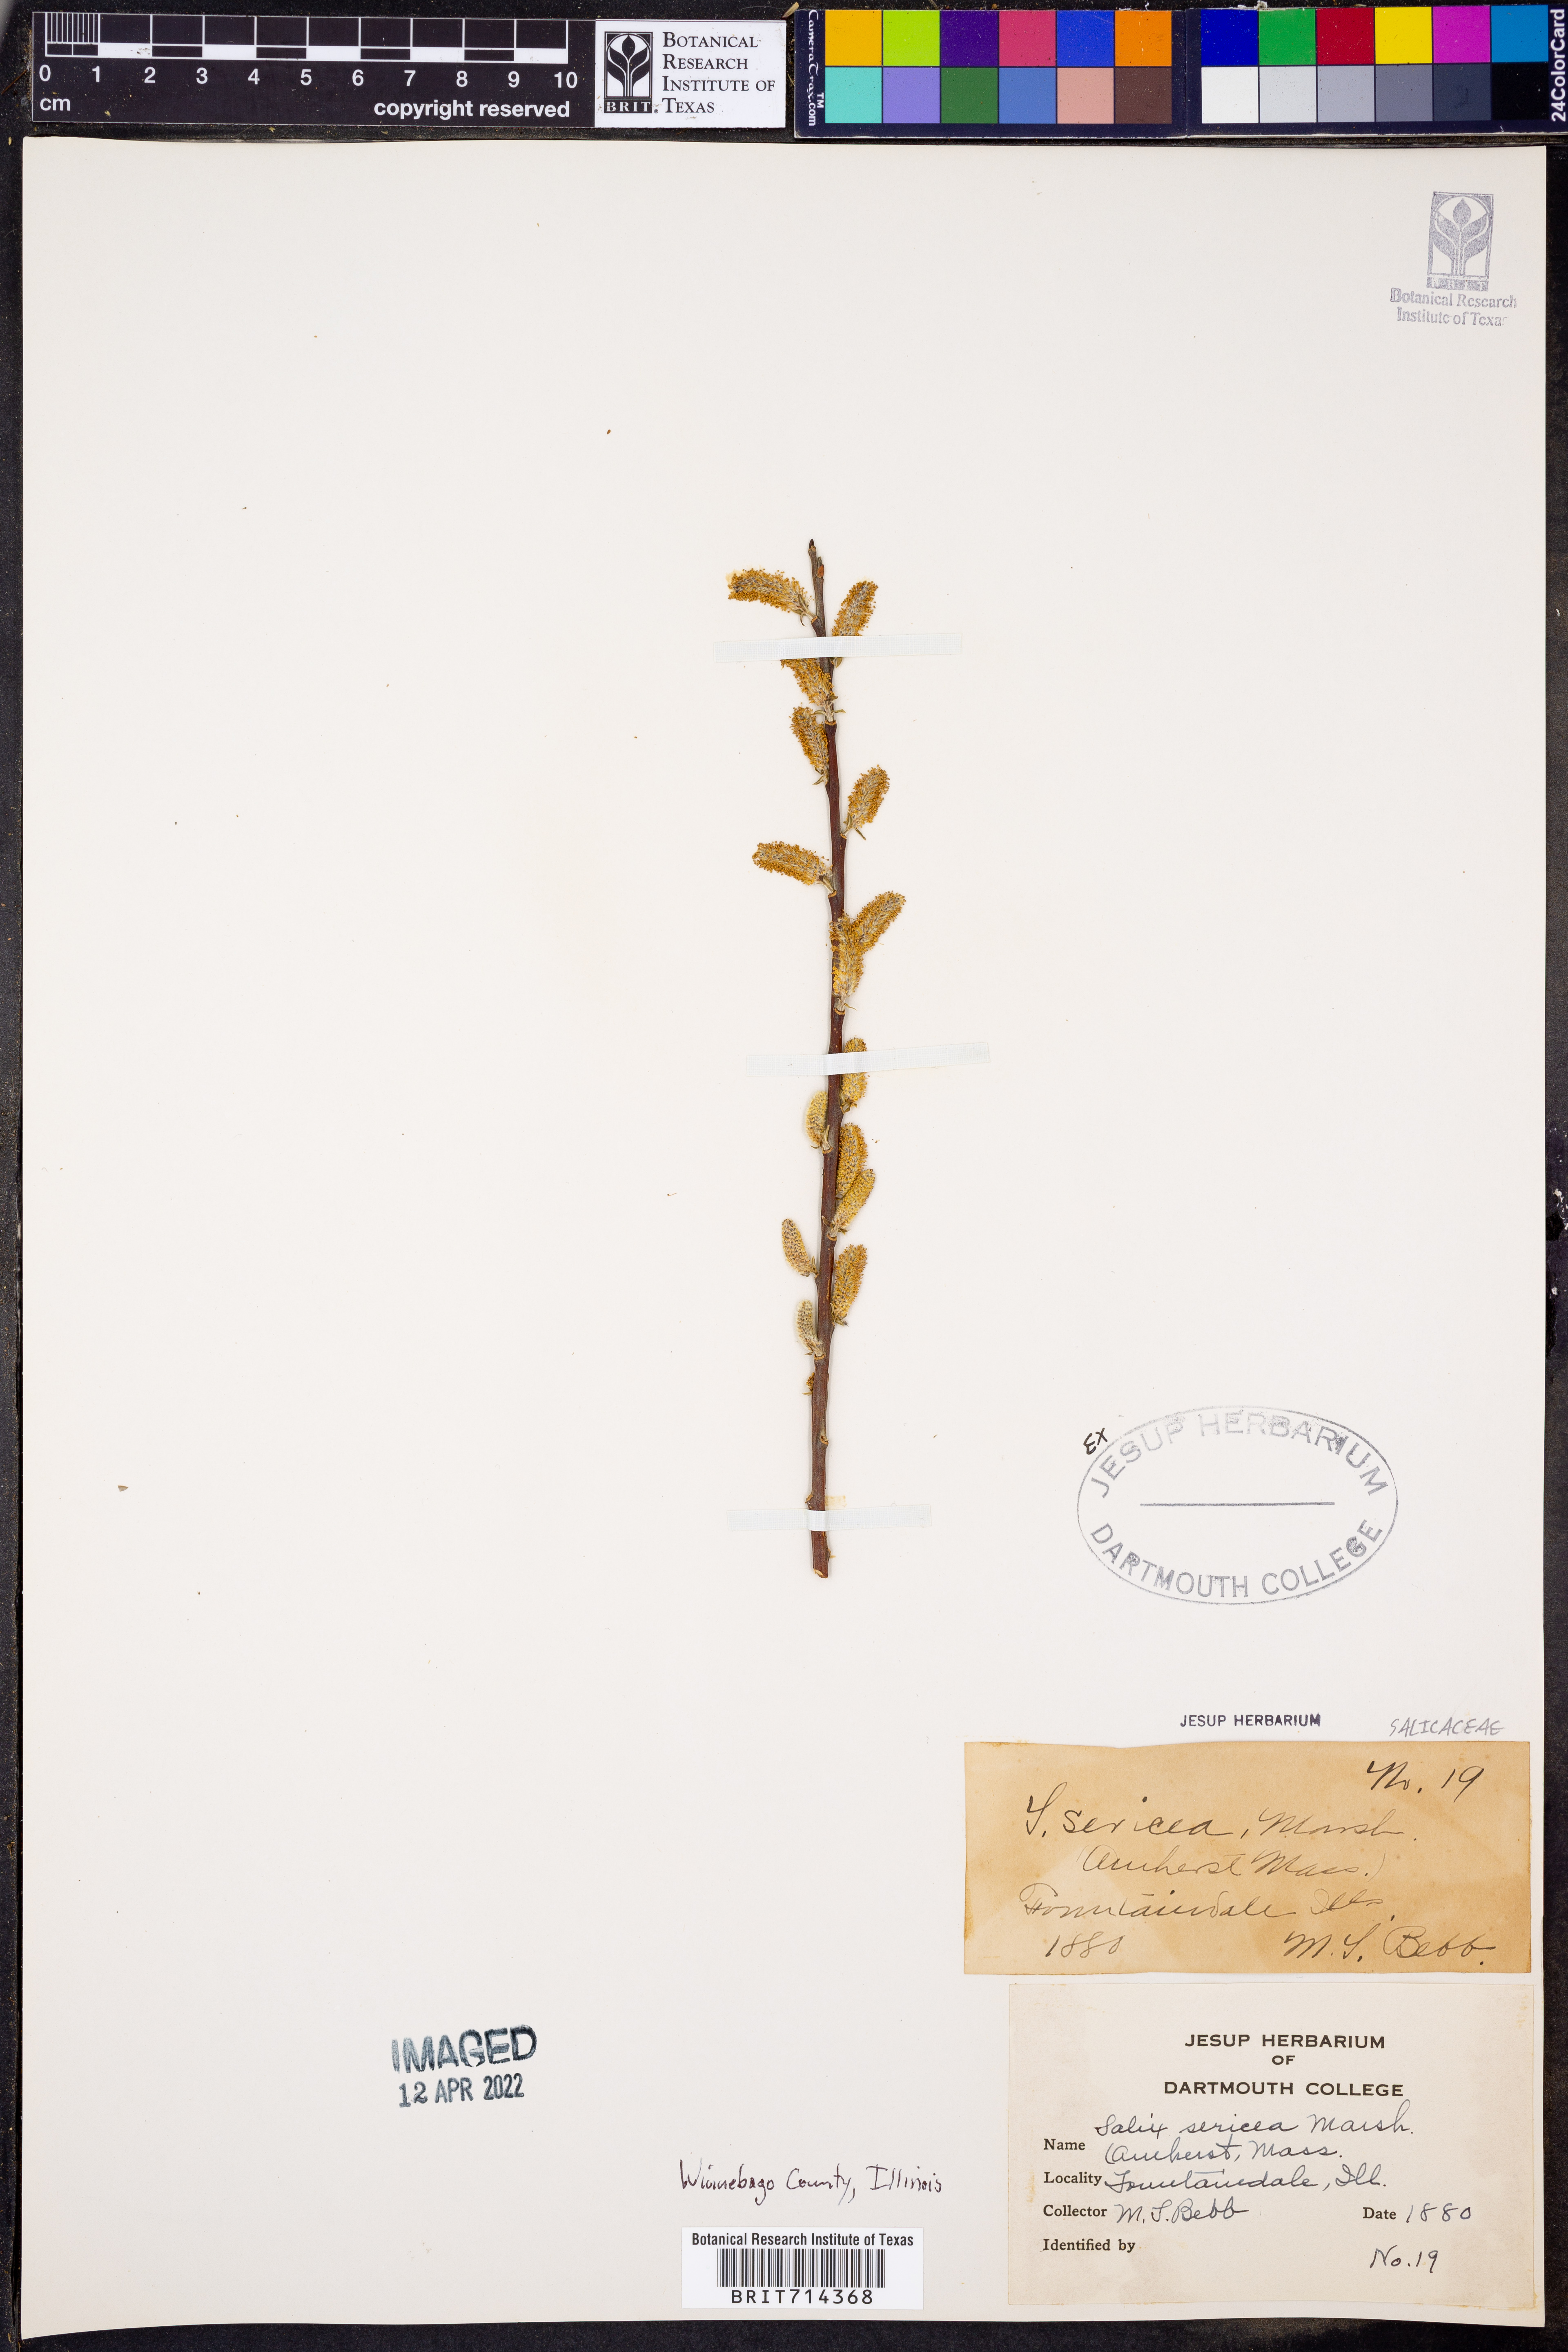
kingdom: Plantae
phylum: Tracheophyta
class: Magnoliopsida
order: Malpighiales
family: Salicaceae
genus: Salix
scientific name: Salix sericea
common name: Silky willow
